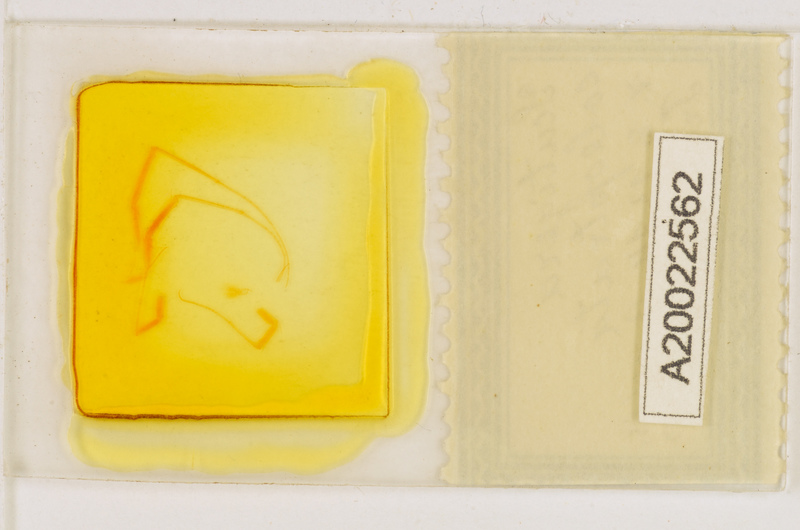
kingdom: Animalia
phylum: Arthropoda
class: Chilopoda
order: Scutigeromorpha
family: Scutigeridae
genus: Scutigera
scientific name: Scutigera coleoptrata
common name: House centipede
